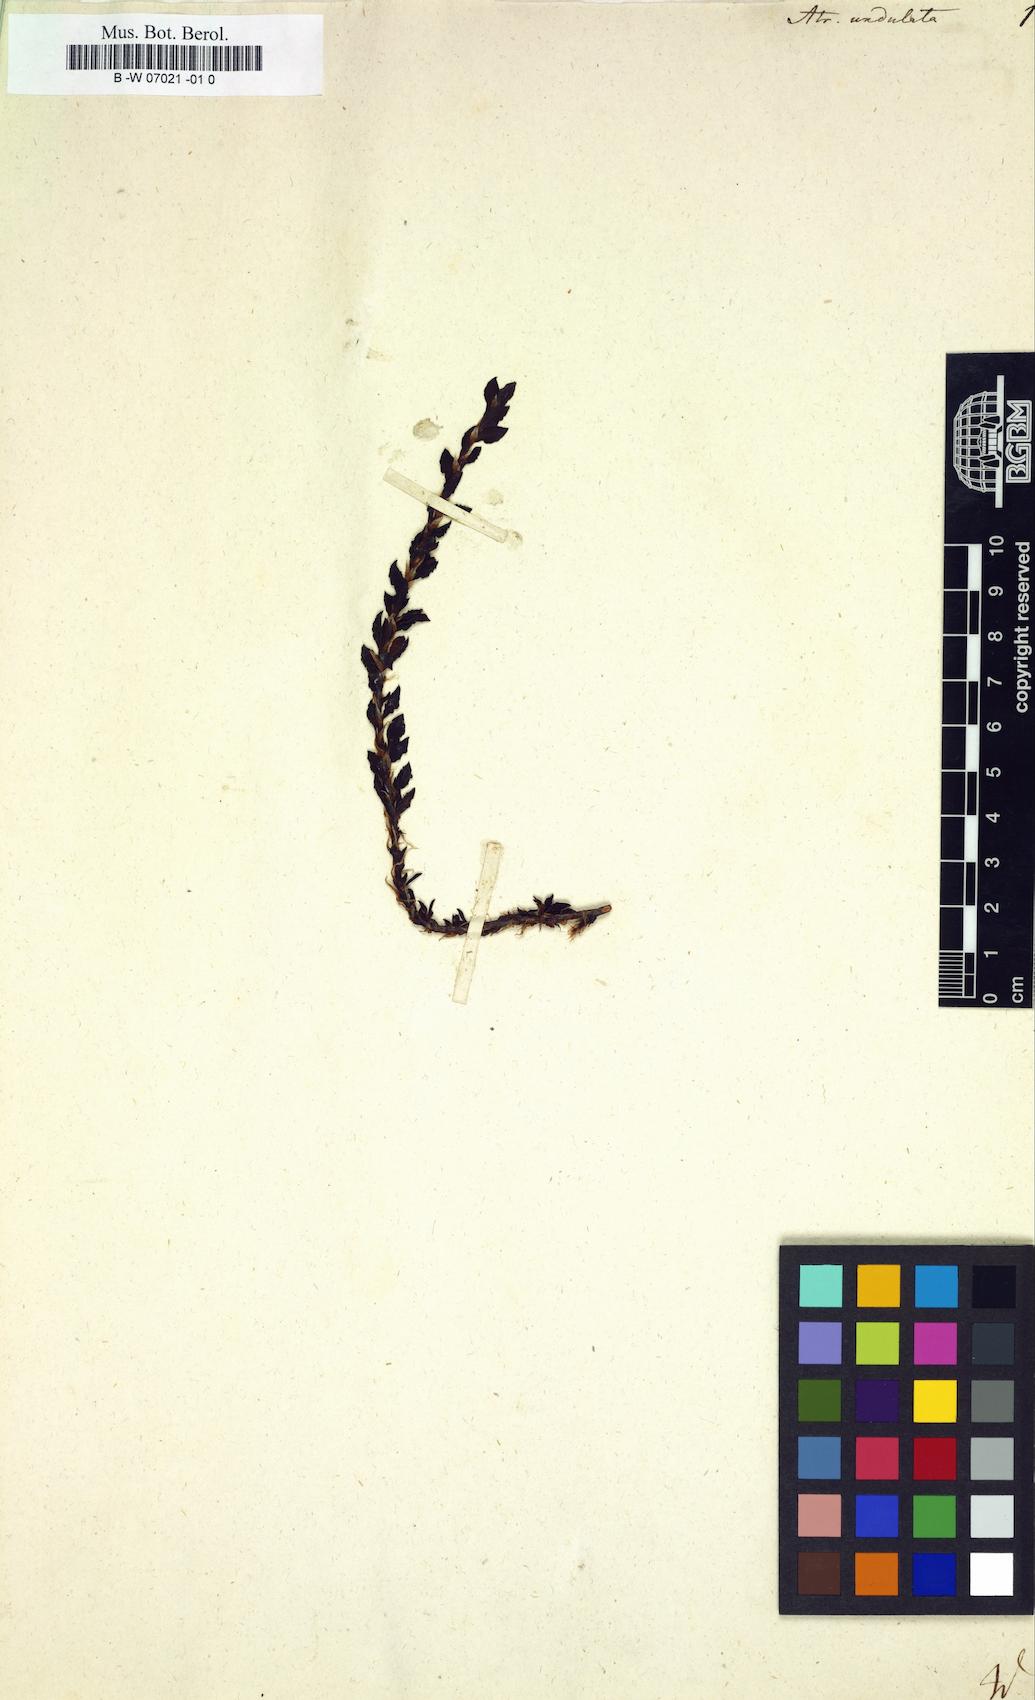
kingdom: Plantae
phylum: Tracheophyta
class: Magnoliopsida
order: Caryophyllales
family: Polygonaceae
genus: Persicaria
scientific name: Persicaria undulata
